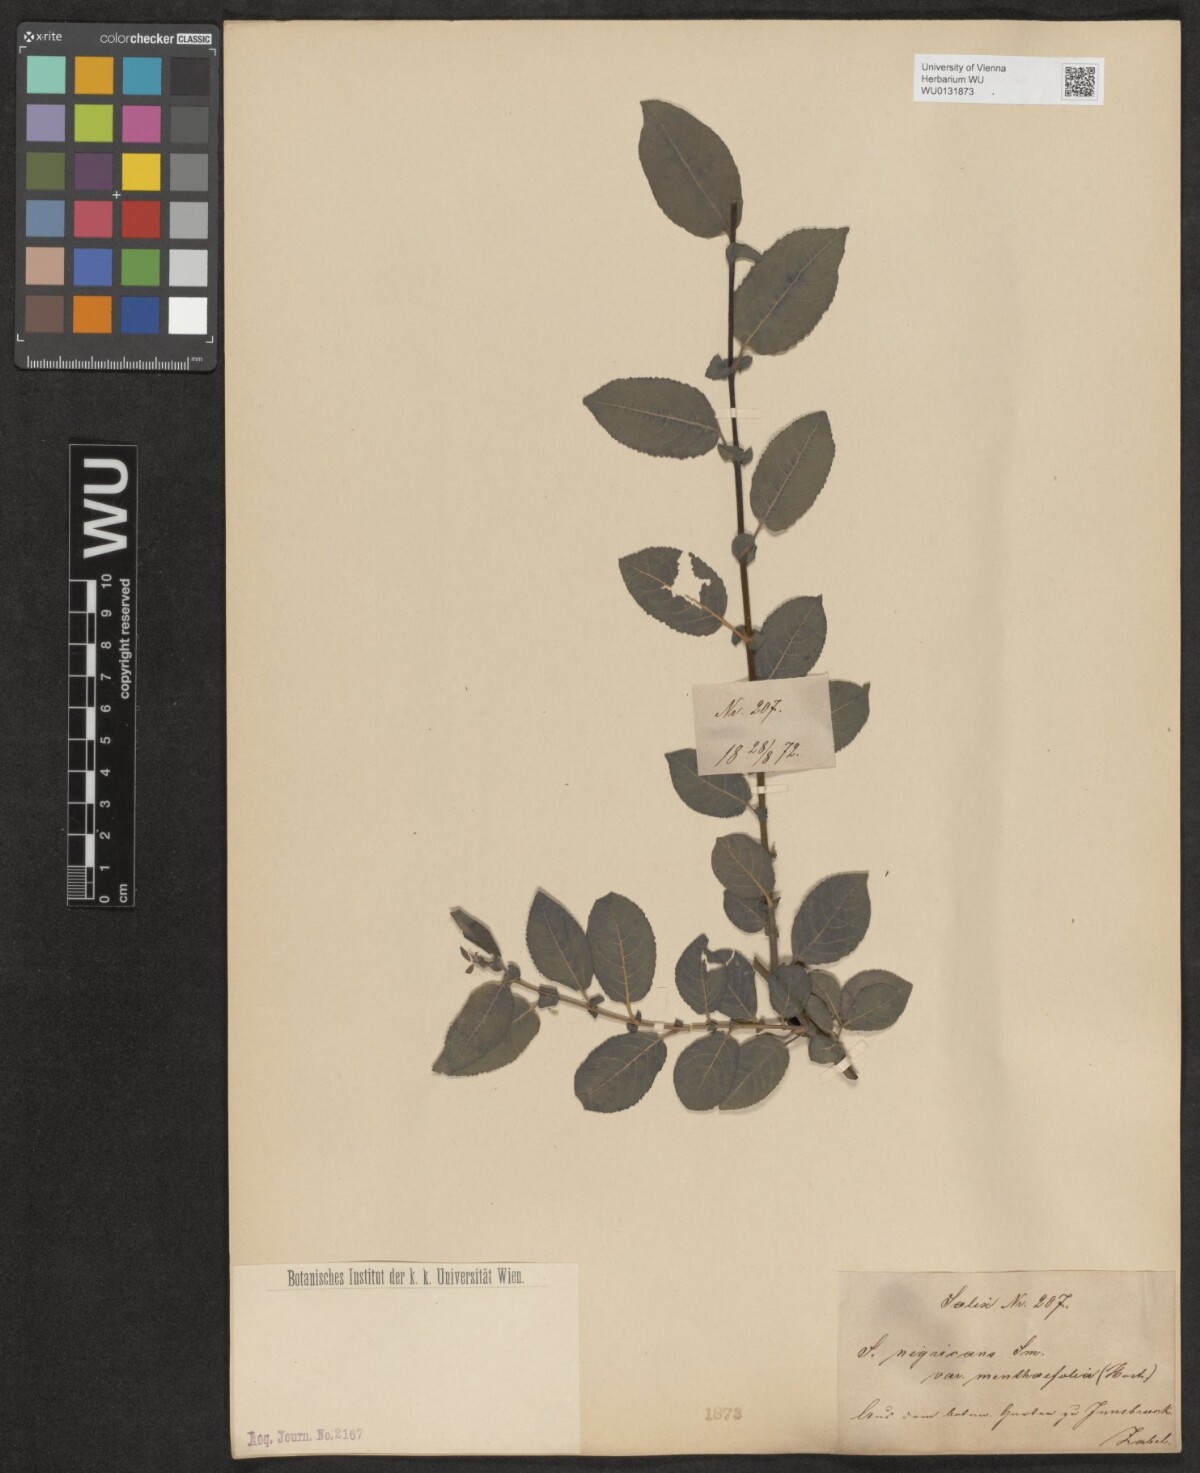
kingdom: Plantae
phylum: Tracheophyta
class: Magnoliopsida
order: Malpighiales
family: Salicaceae
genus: Salix
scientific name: Salix myrsinifolia
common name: Dark-leaved willow
